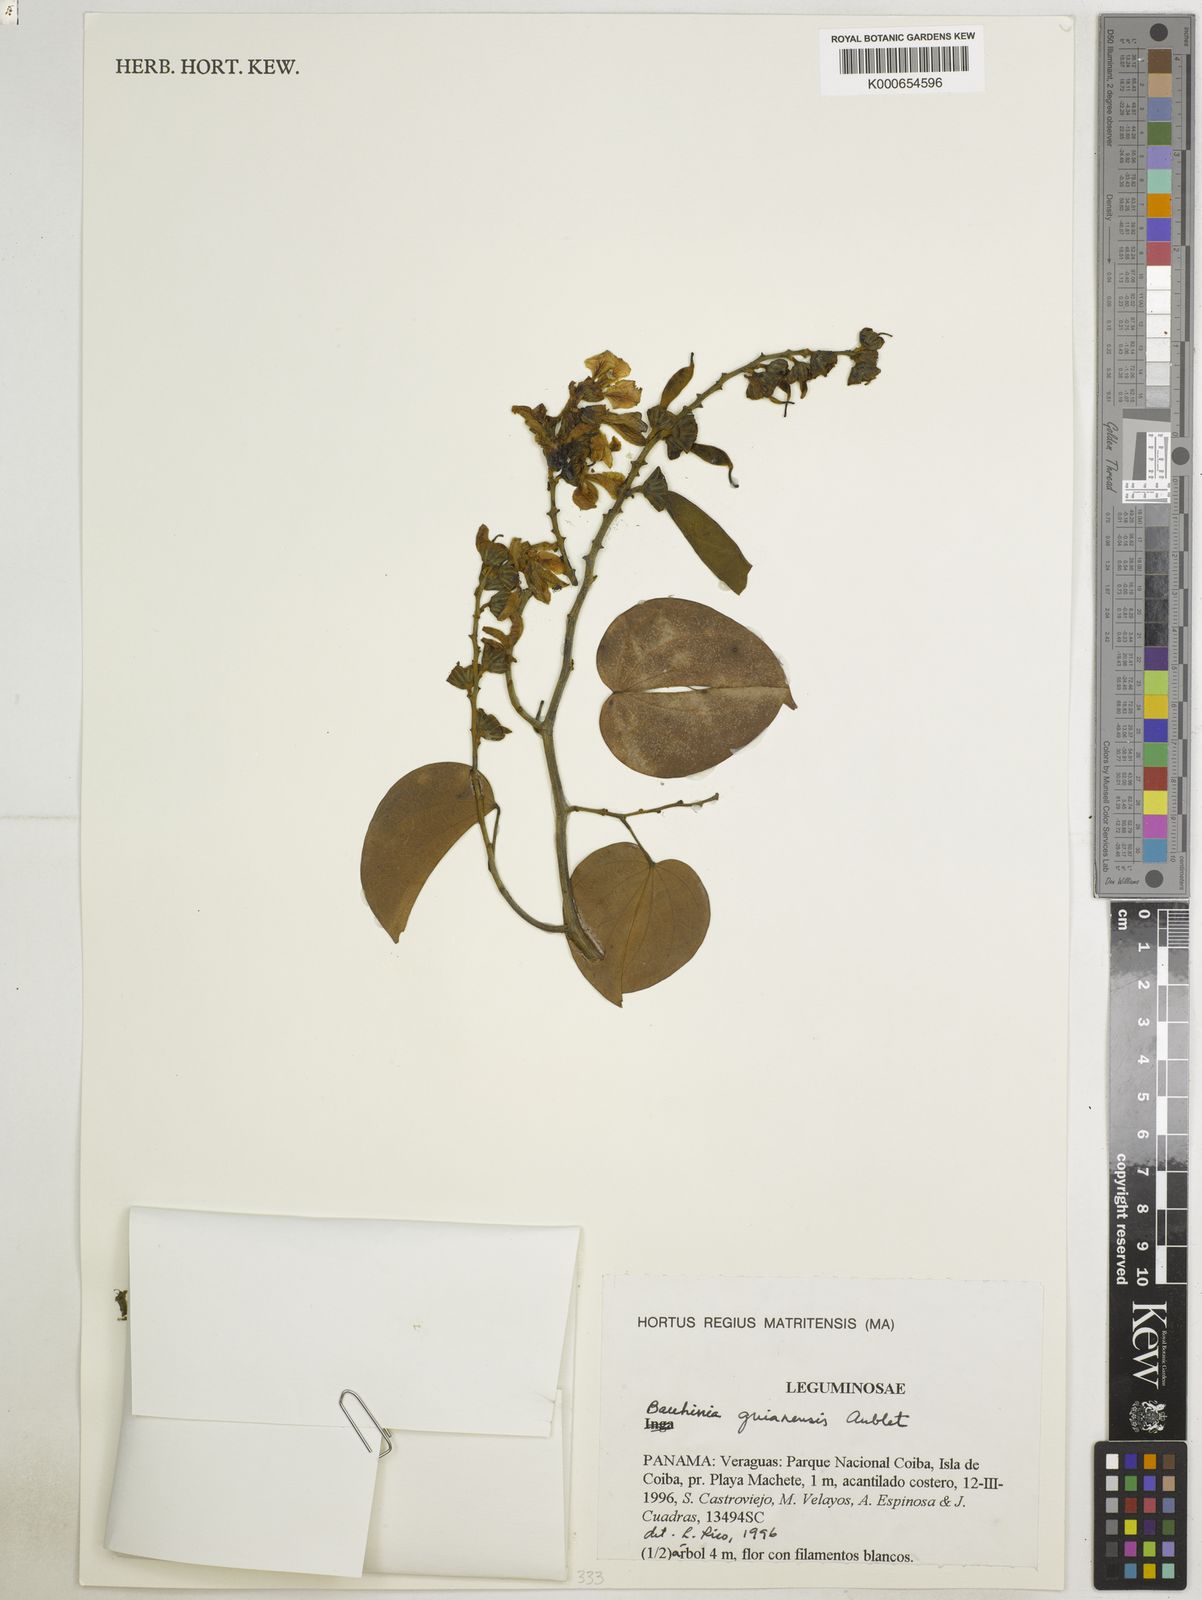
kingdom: Plantae
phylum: Tracheophyta
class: Magnoliopsida
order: Fabales
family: Fabaceae
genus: Schnella
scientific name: Schnella guianensis
